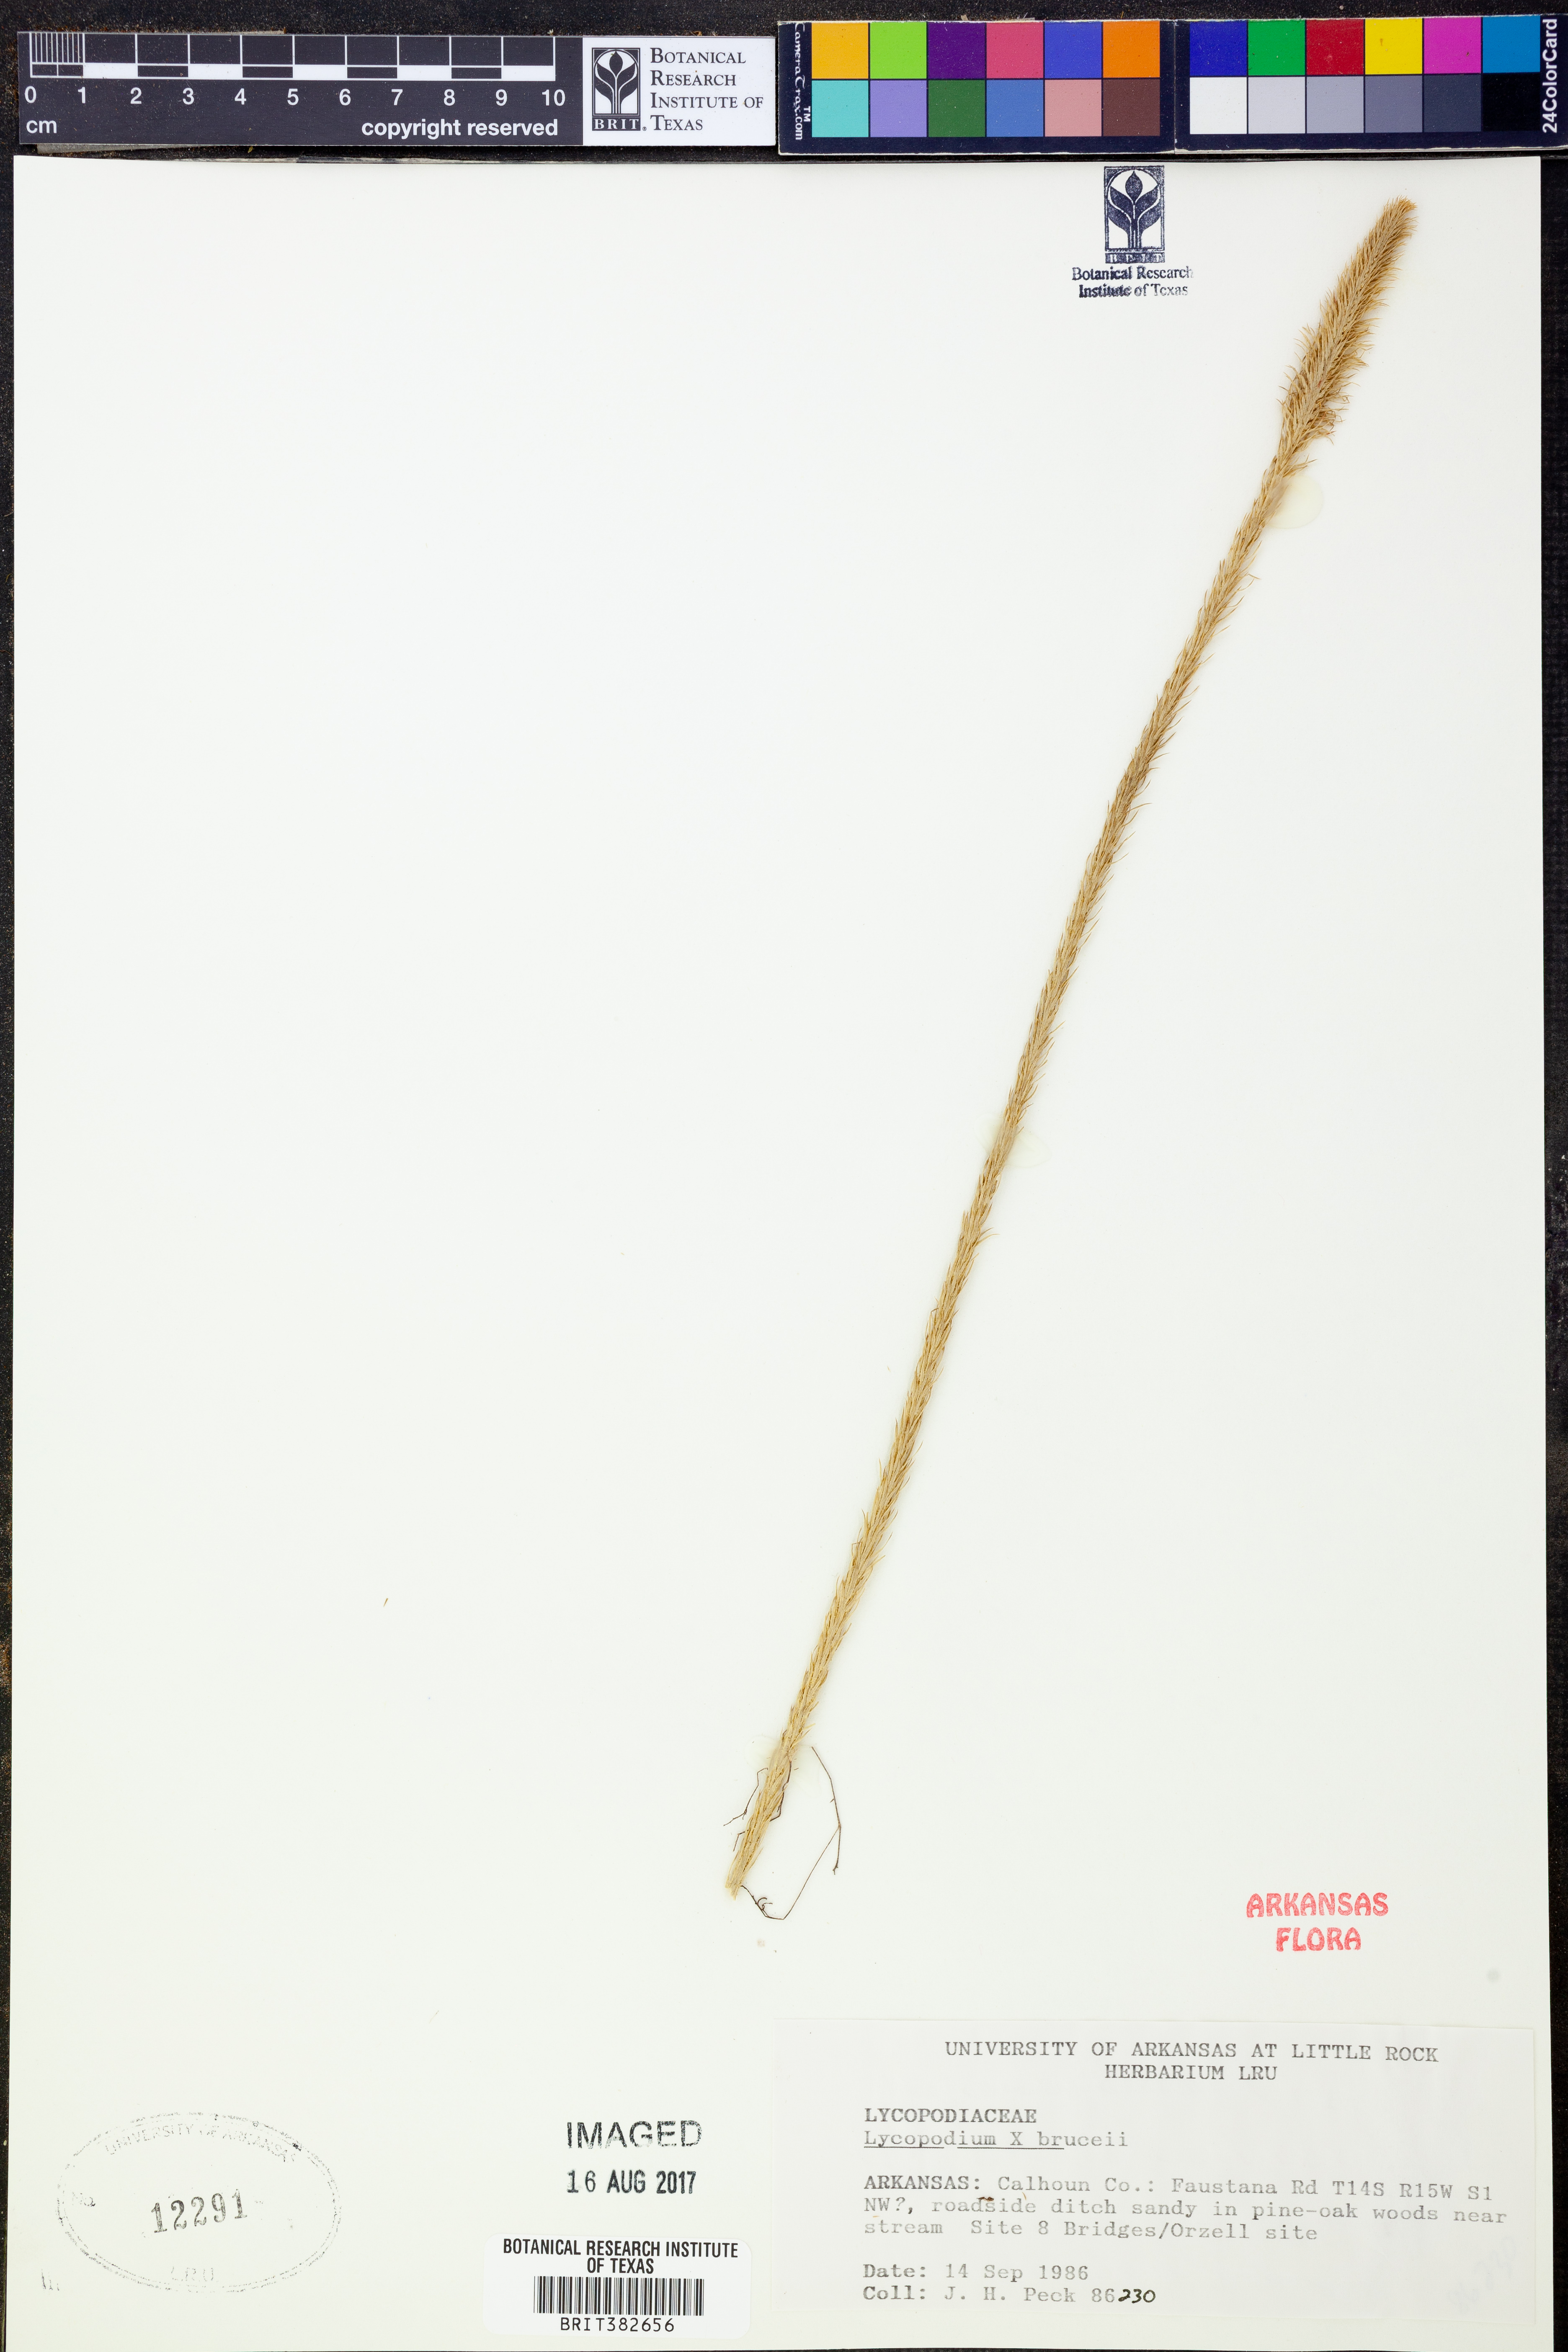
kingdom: Plantae
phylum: Tracheophyta
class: Lycopodiopsida
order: Lycopodiales
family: Lycopodiaceae
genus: Lycopodiella
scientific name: Lycopodiella brucei
